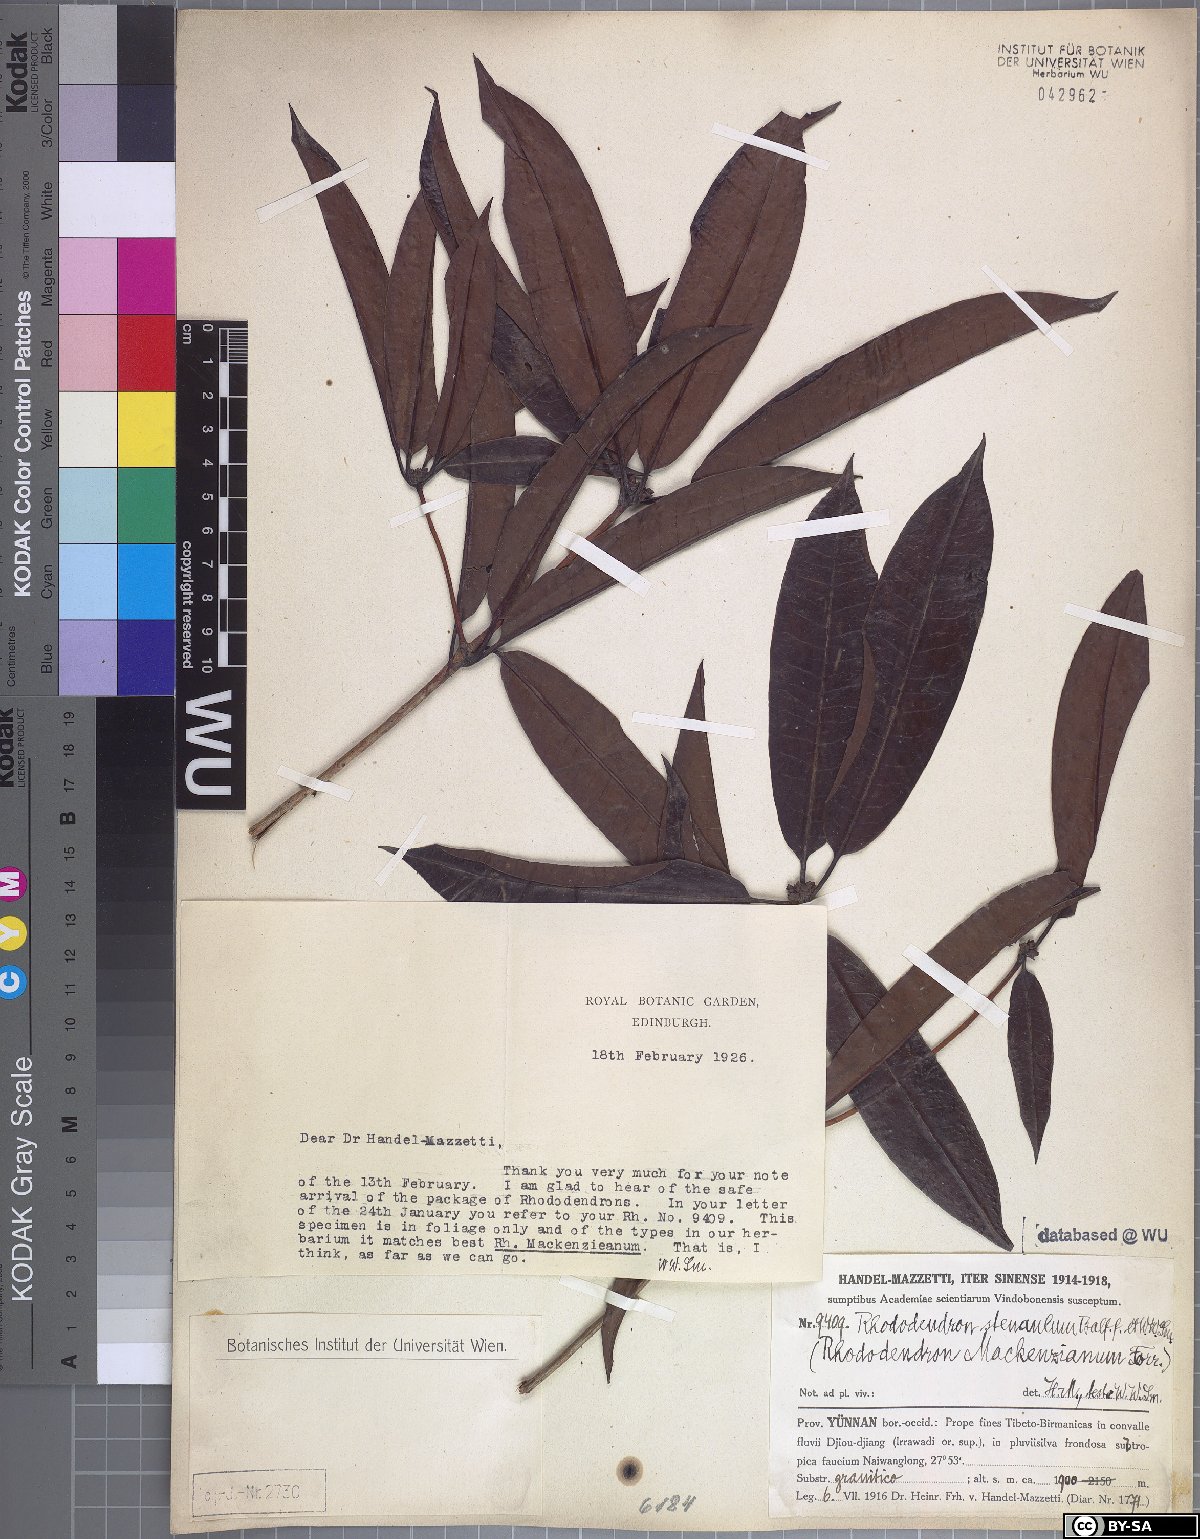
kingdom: Plantae
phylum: Tracheophyta
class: Magnoliopsida
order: Ericales
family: Ericaceae
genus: Rhododendron
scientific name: Rhododendron moulmainense
